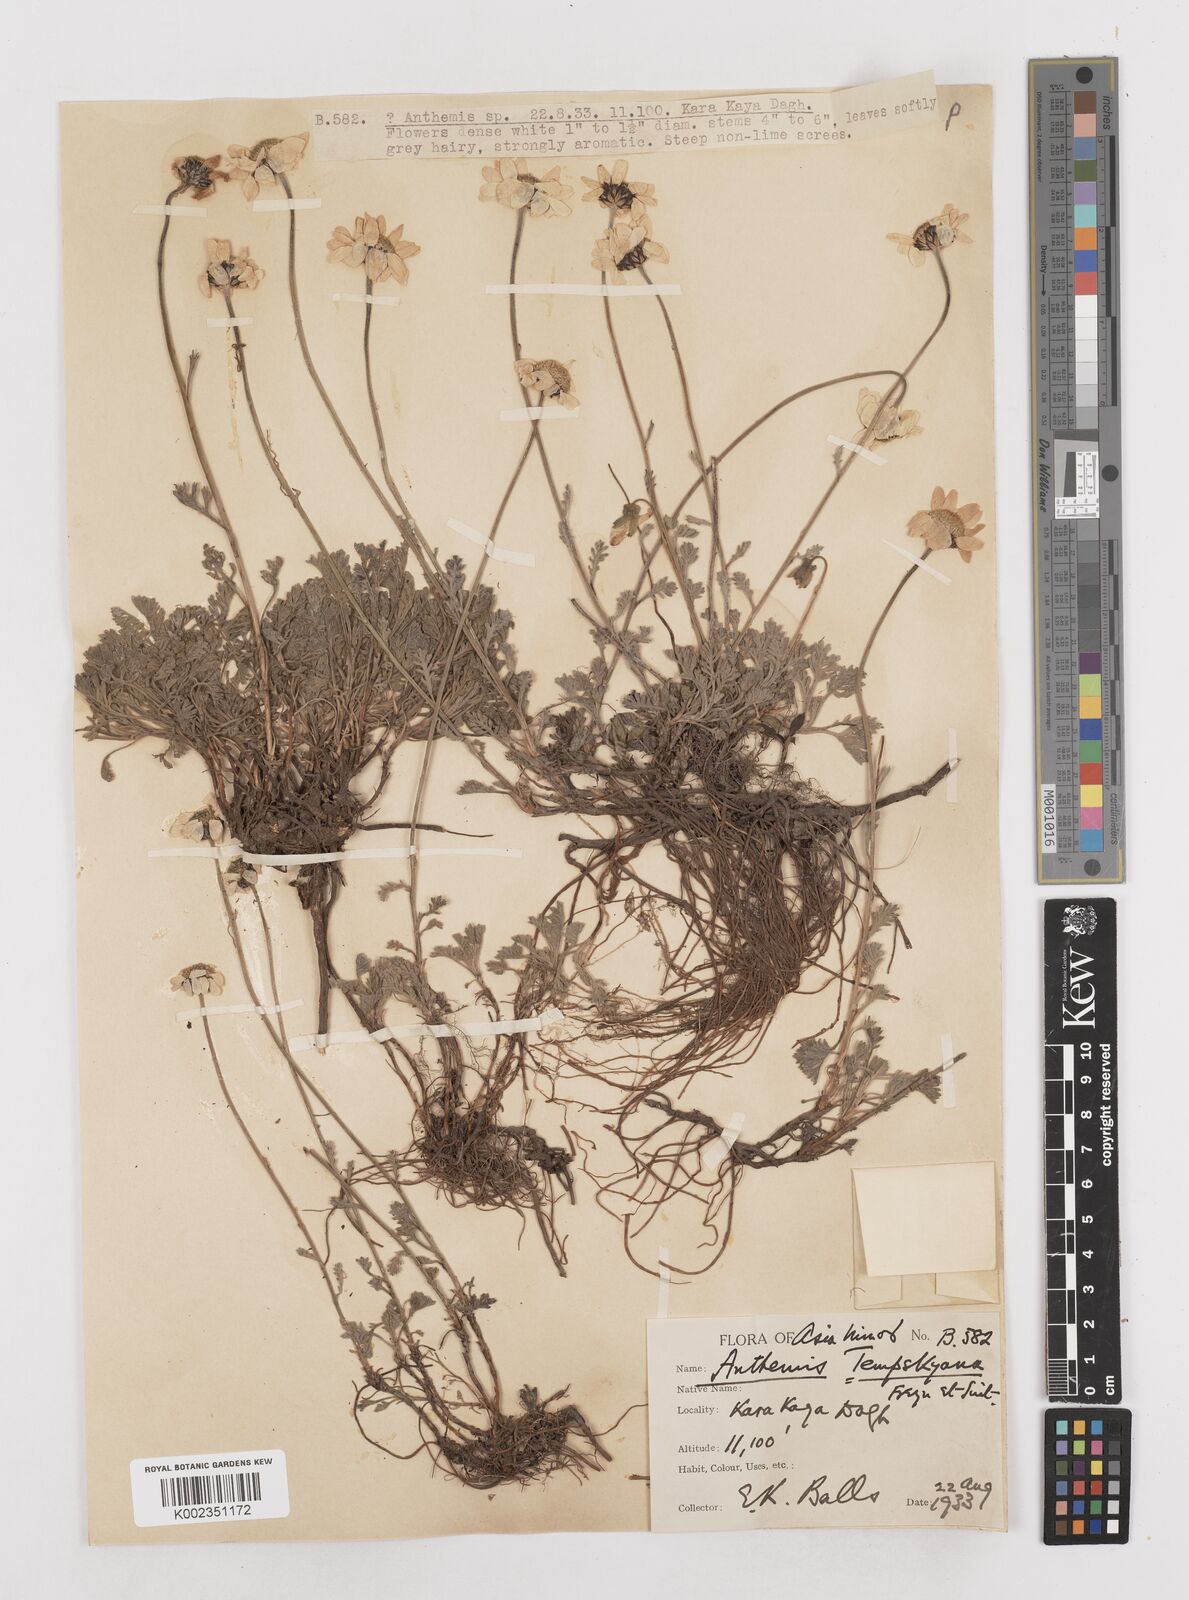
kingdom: Plantae
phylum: Tracheophyta
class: Magnoliopsida
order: Asterales
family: Asteraceae
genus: Anthemis
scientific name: Anthemis cretica
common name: Mountain dog-daisy
